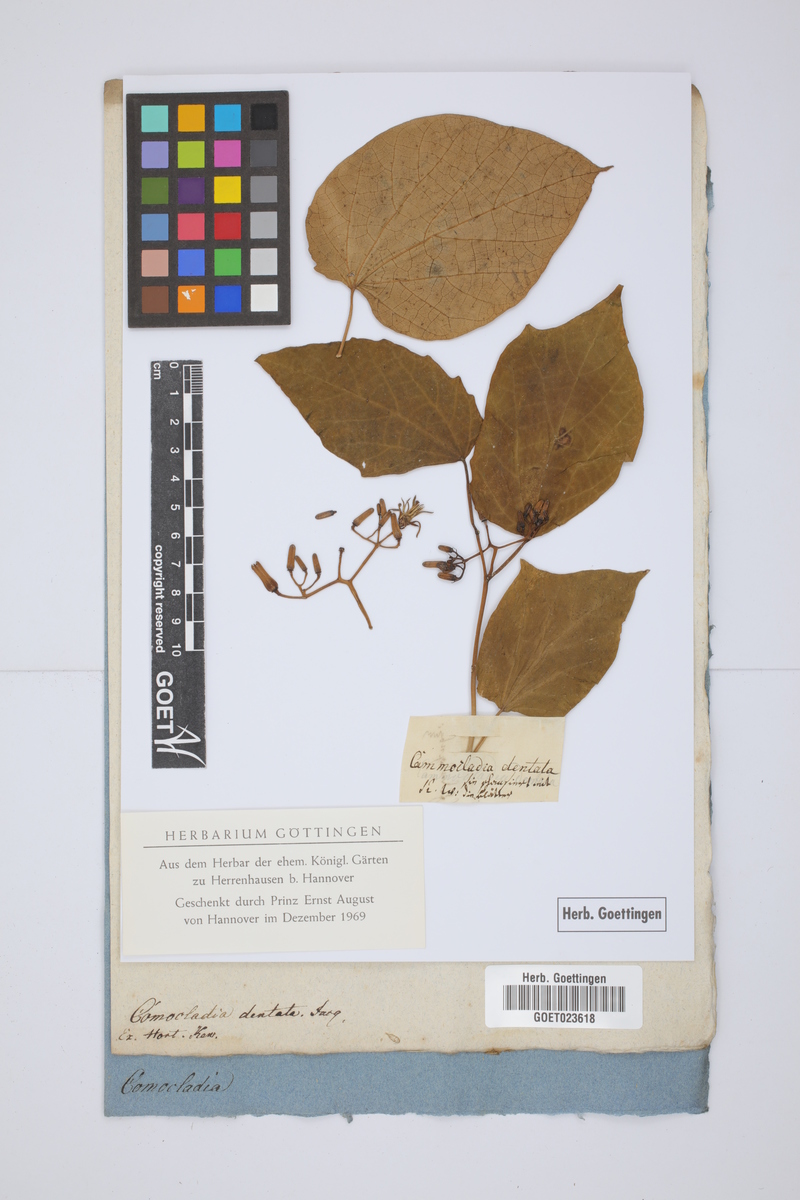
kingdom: Plantae
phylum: Tracheophyta
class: Magnoliopsida
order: Sapindales
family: Anacardiaceae
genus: Comocladia
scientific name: Comocladia dentata
